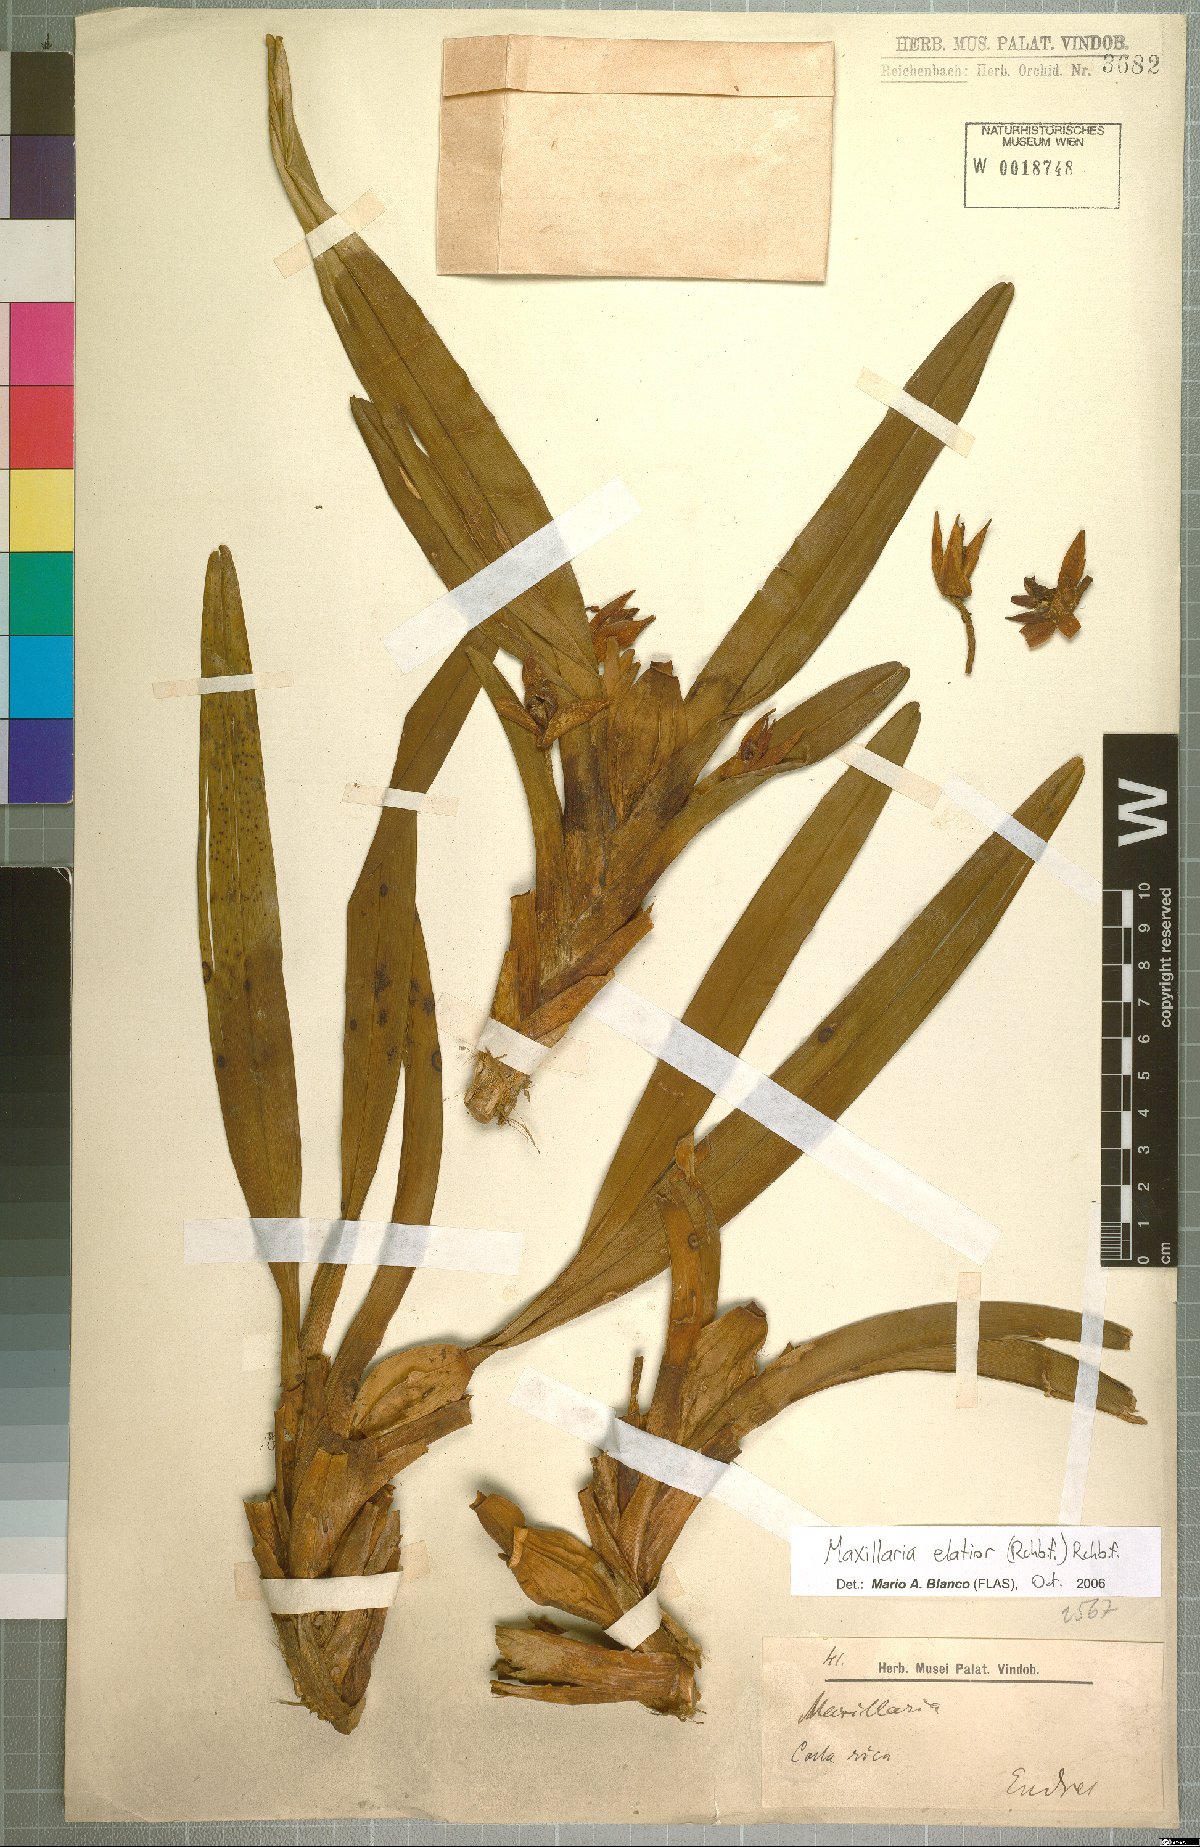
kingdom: Plantae
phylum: Tracheophyta
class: Liliopsida
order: Asparagales
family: Orchidaceae
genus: Maxillaria
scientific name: Maxillaria elatior
